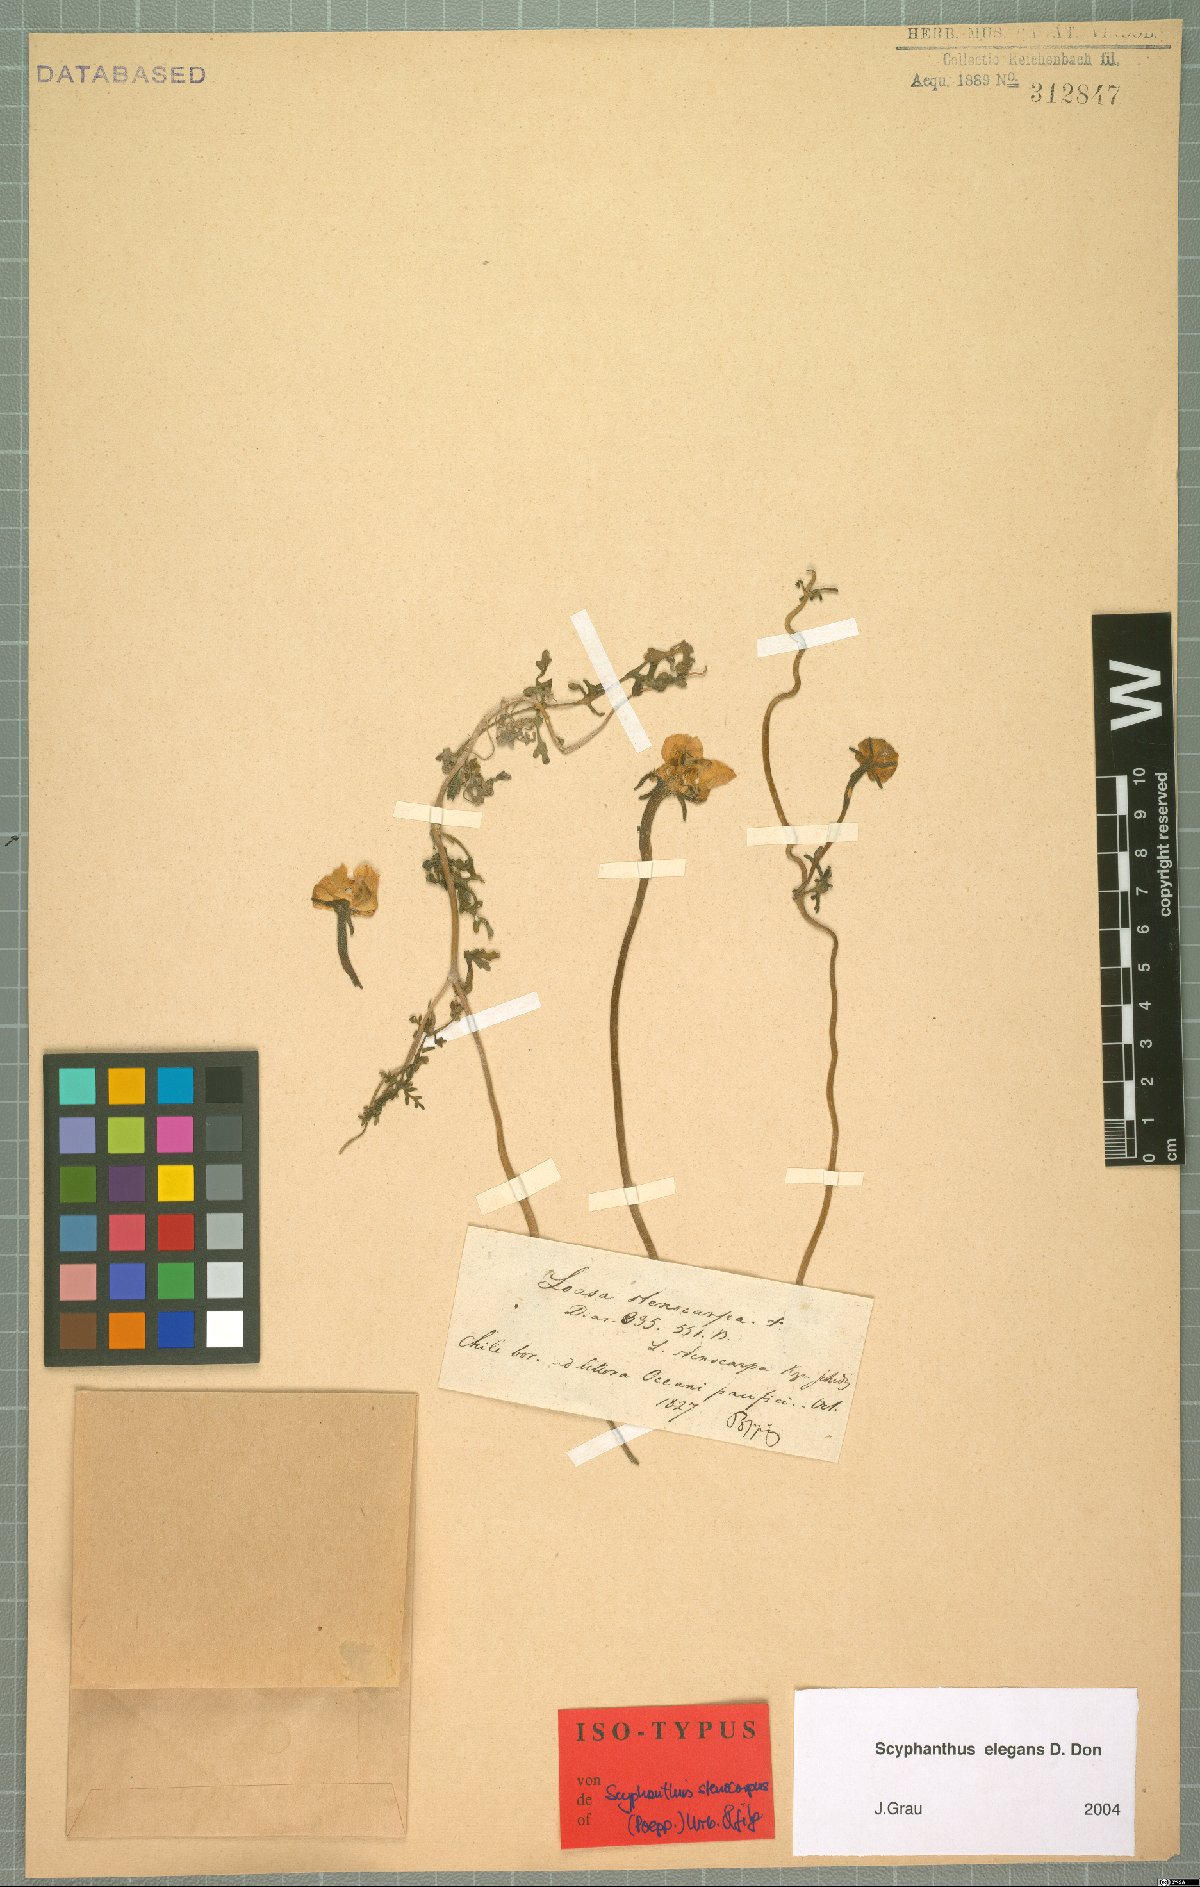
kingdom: Plantae
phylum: Tracheophyta
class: Magnoliopsida
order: Cornales
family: Loasaceae
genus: Scyphanthus
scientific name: Scyphanthus elegans
